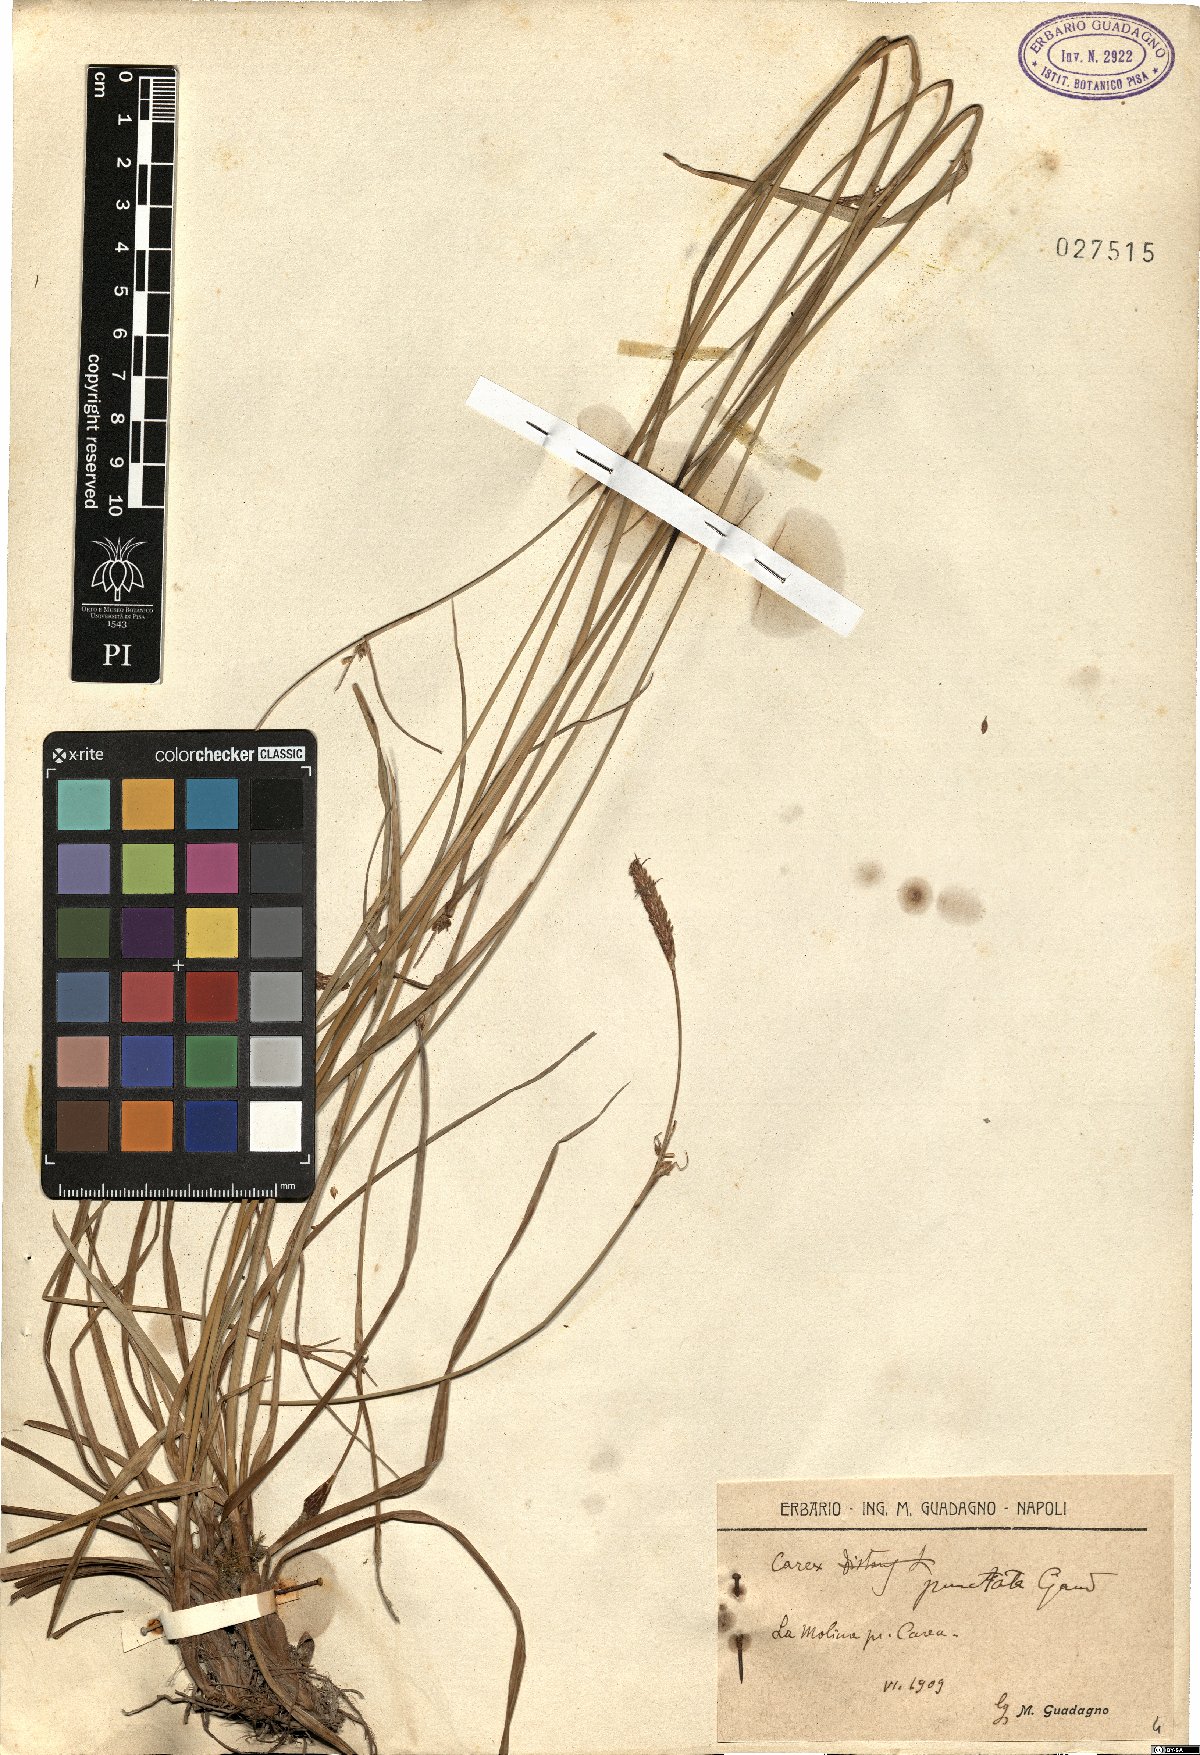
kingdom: Plantae
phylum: Tracheophyta
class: Liliopsida
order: Poales
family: Cyperaceae
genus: Carex
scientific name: Carex punctata
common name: Dotted sedge
